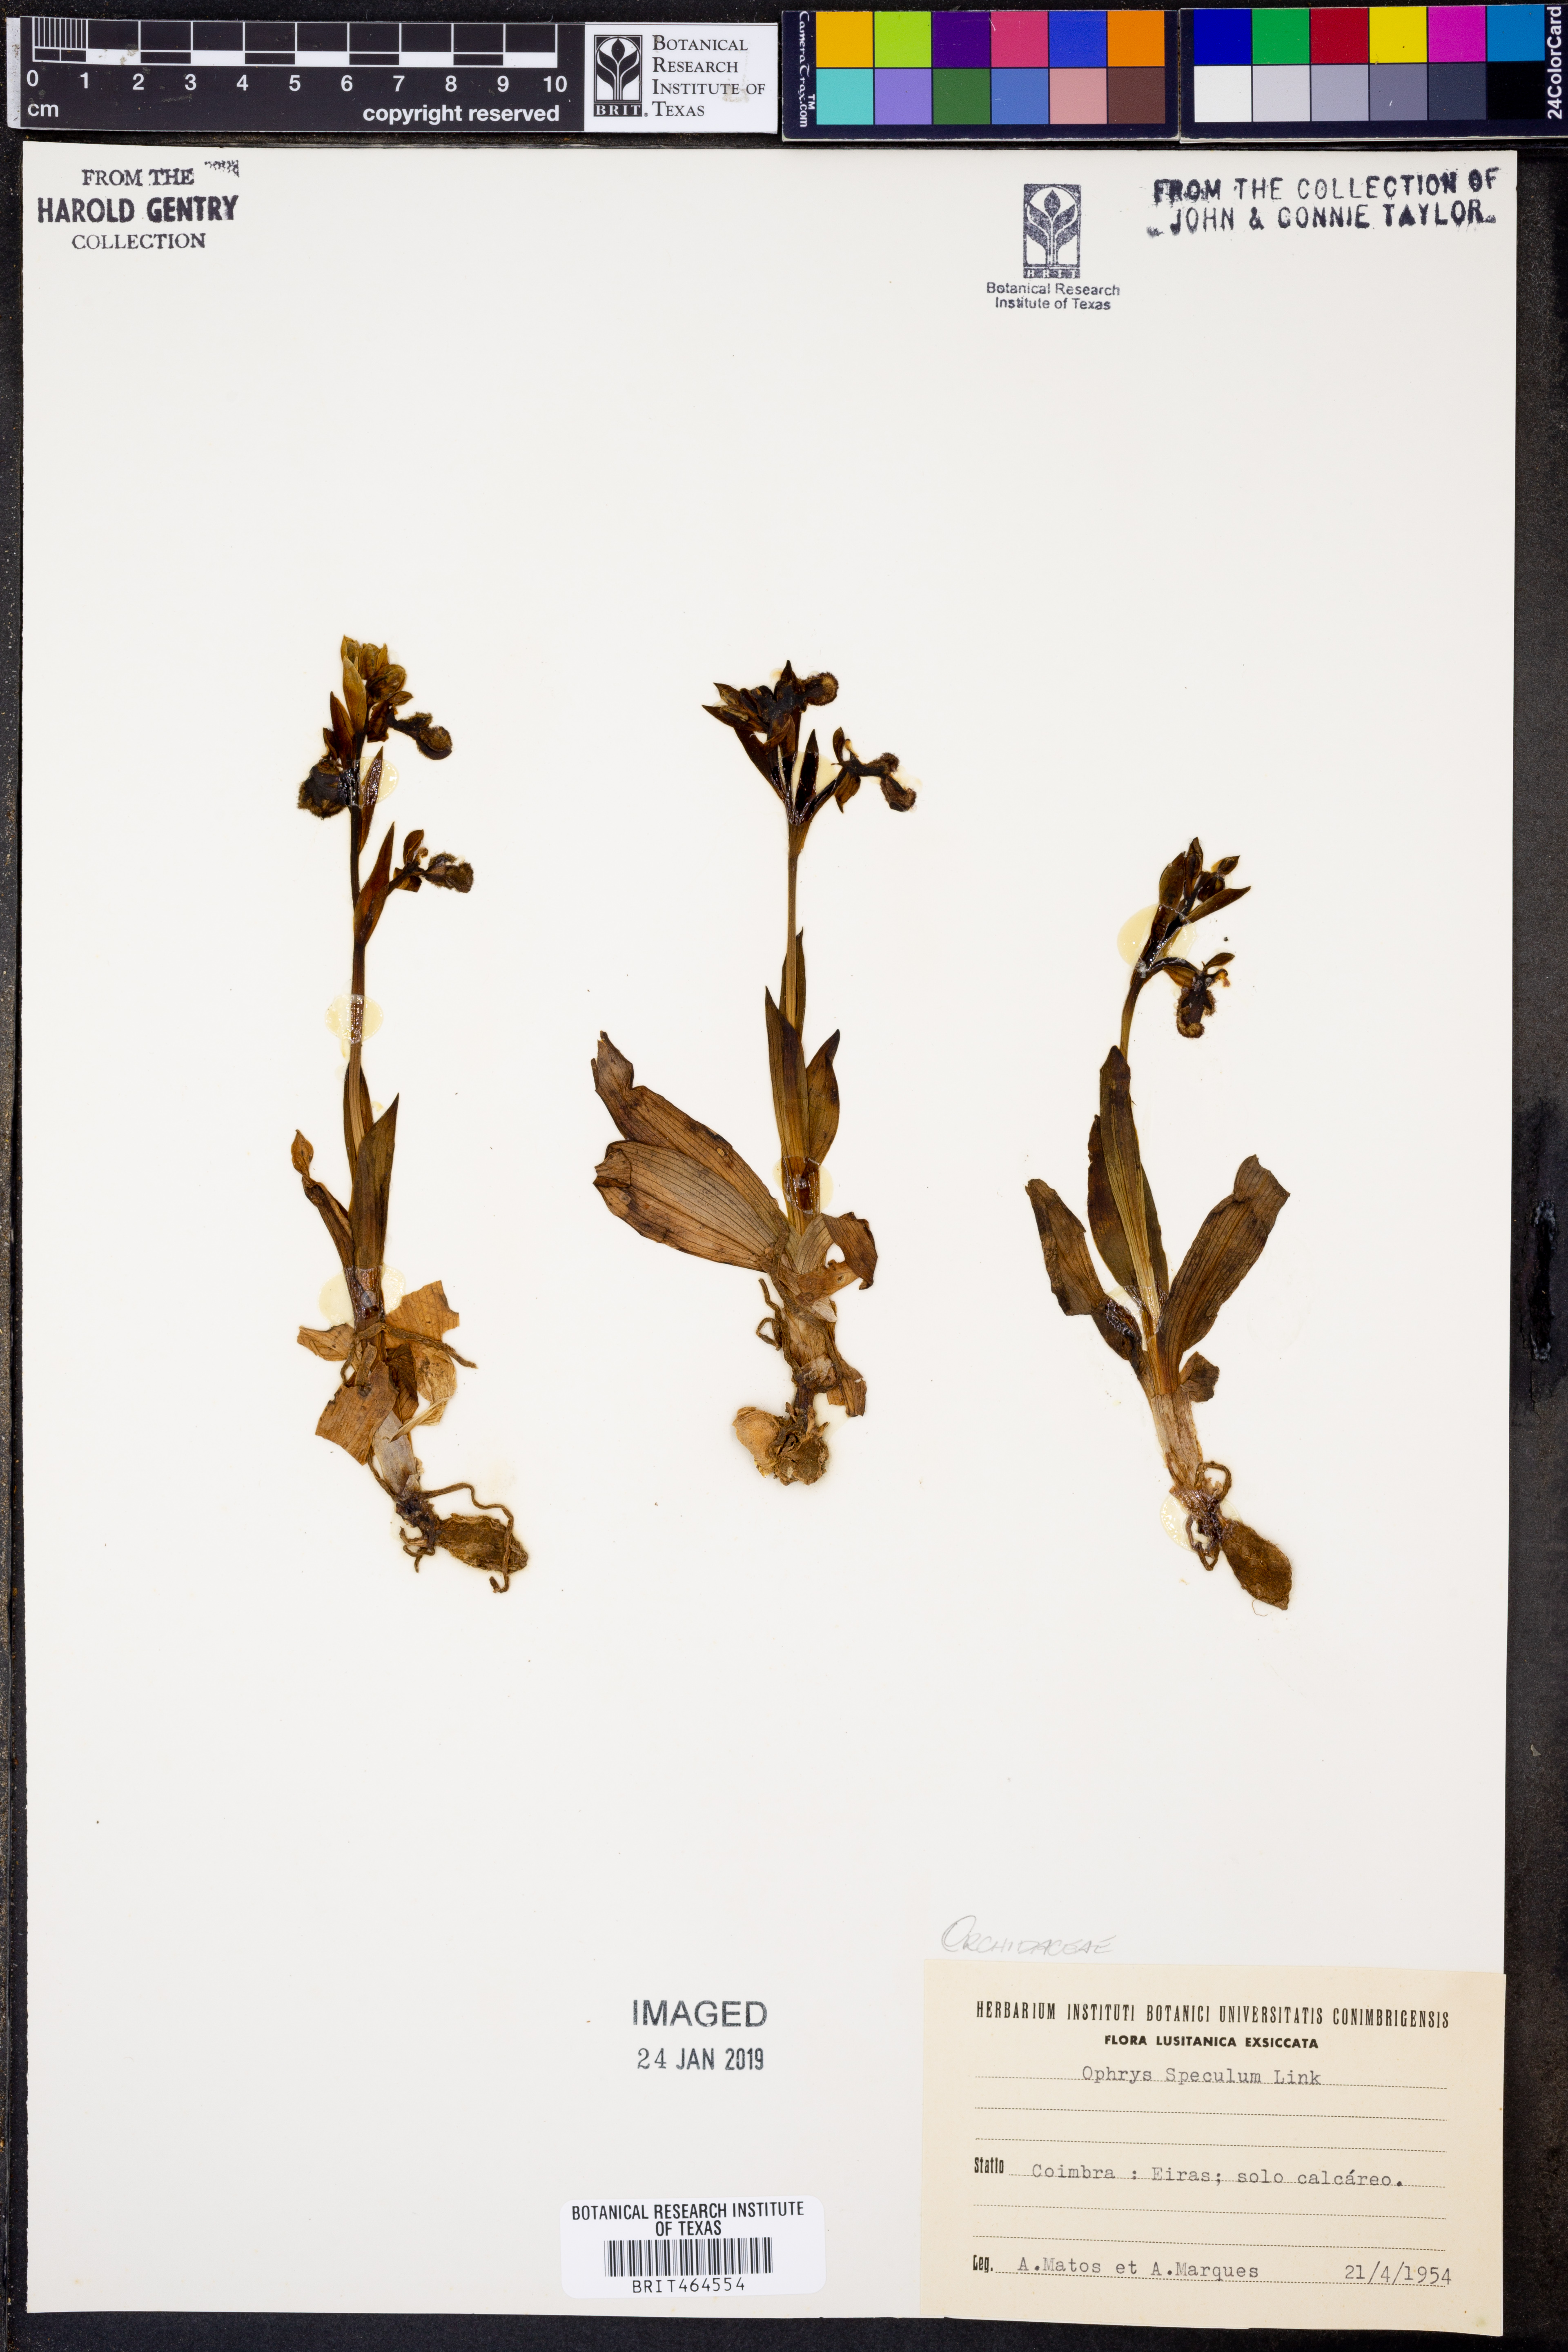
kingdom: Plantae
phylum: Tracheophyta
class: Liliopsida
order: Asparagales
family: Orchidaceae
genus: Ophrys
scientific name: Ophrys speculum
